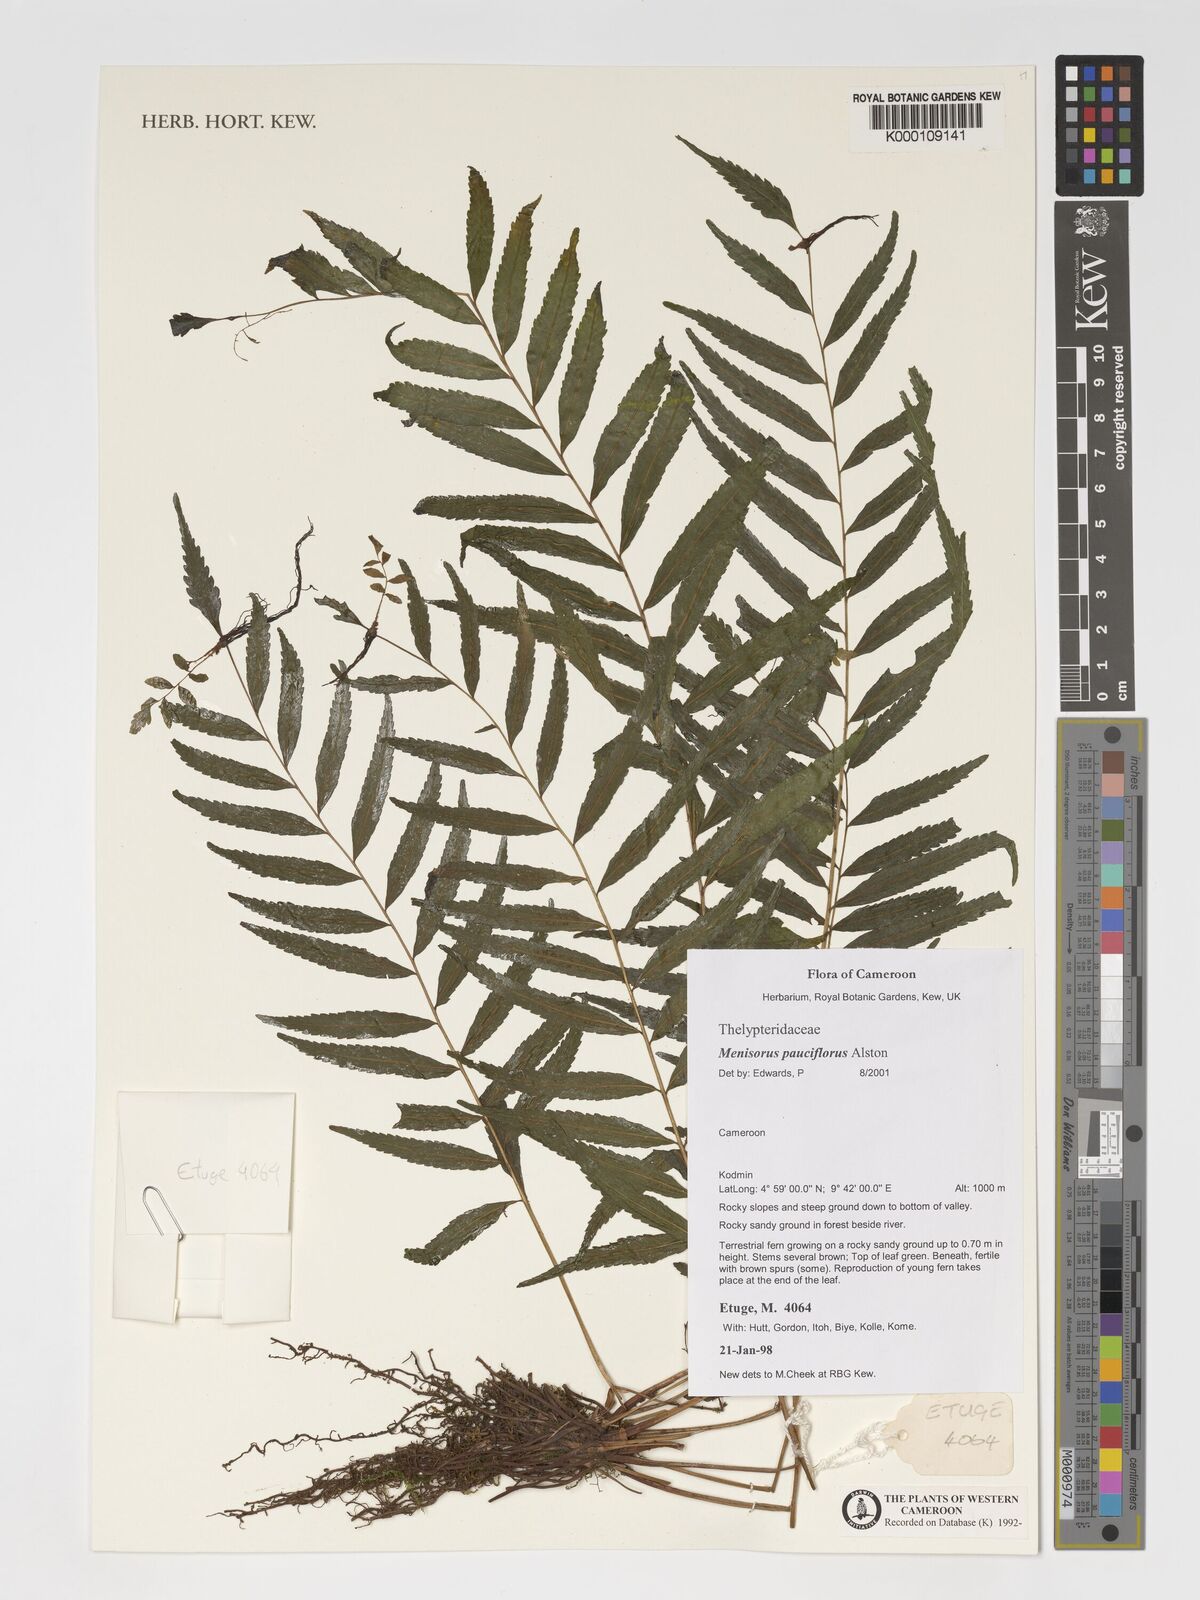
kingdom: Plantae
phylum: Tracheophyta
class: Polypodiopsida
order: Polypodiales
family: Thelypteridaceae
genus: Menisorus
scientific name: Menisorus pauciflorus
